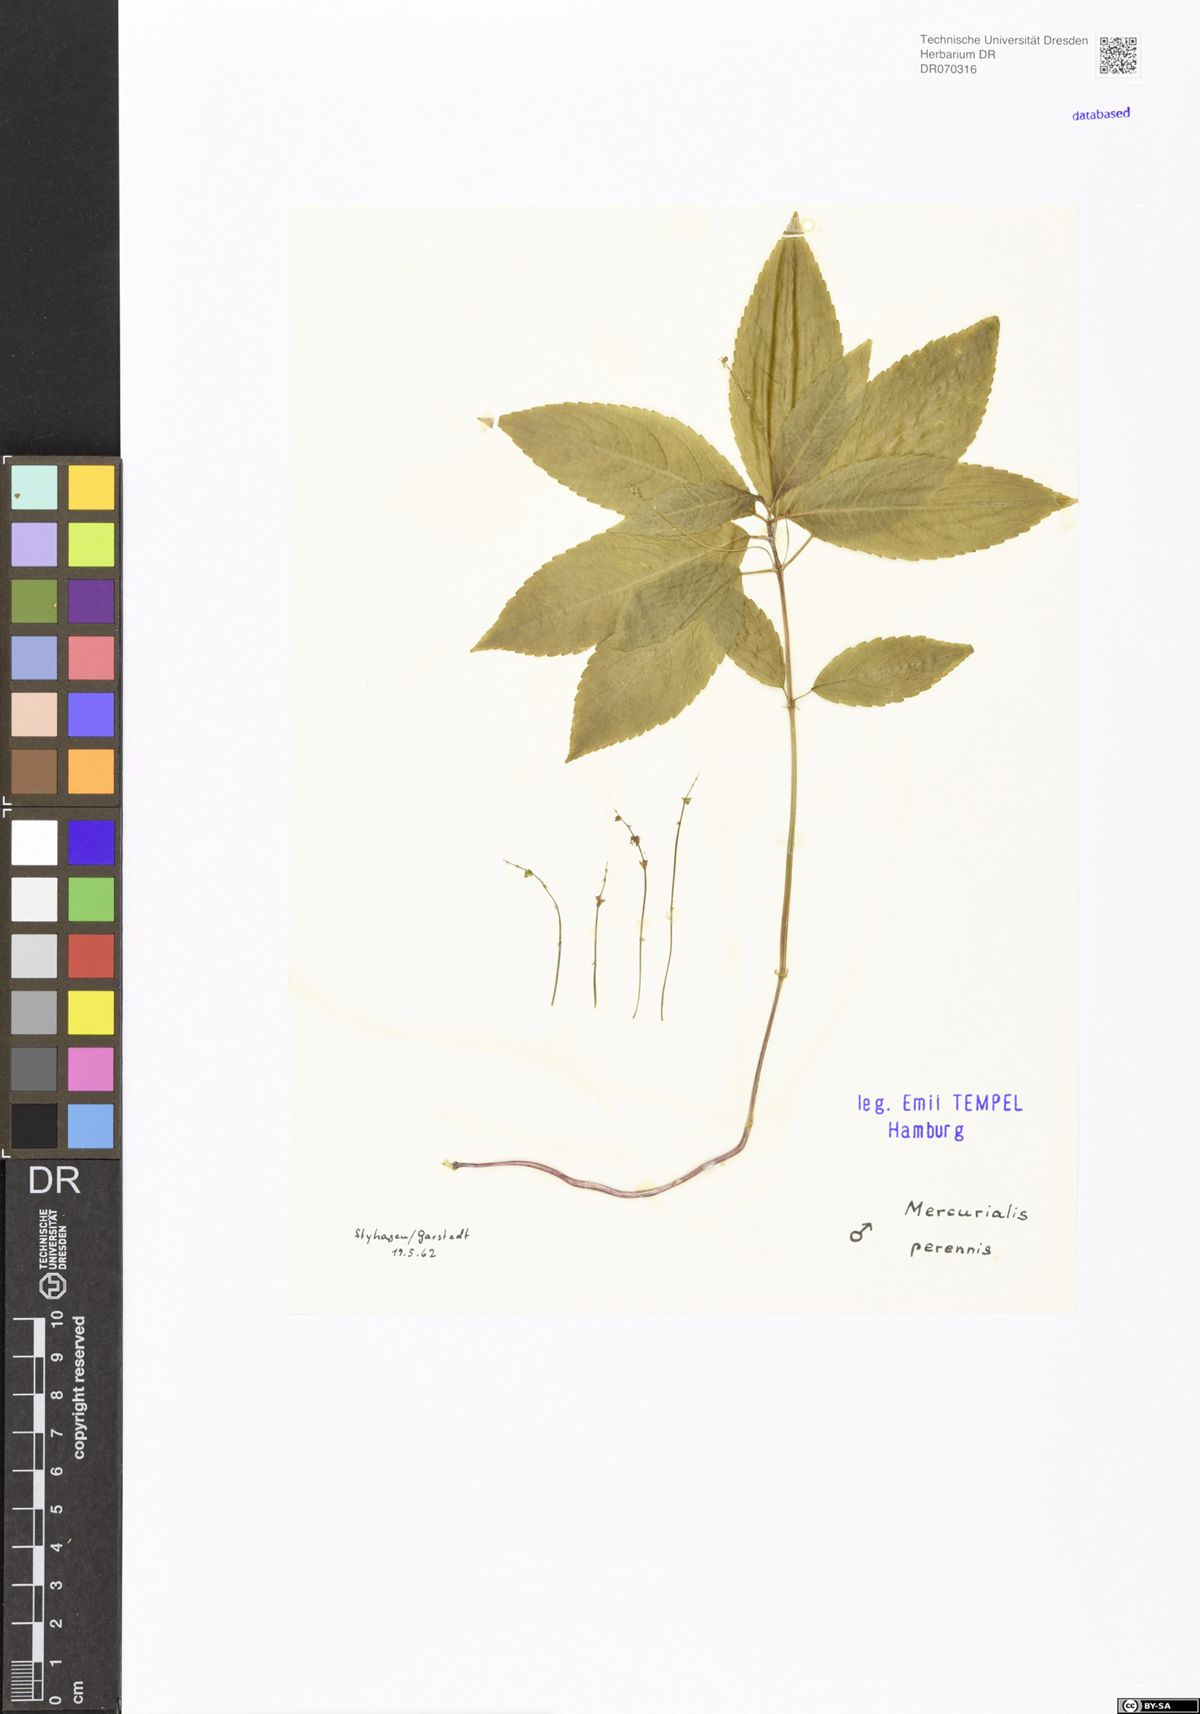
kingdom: Plantae
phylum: Tracheophyta
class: Magnoliopsida
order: Malpighiales
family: Euphorbiaceae
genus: Mercurialis
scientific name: Mercurialis perennis
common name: Dog mercury
